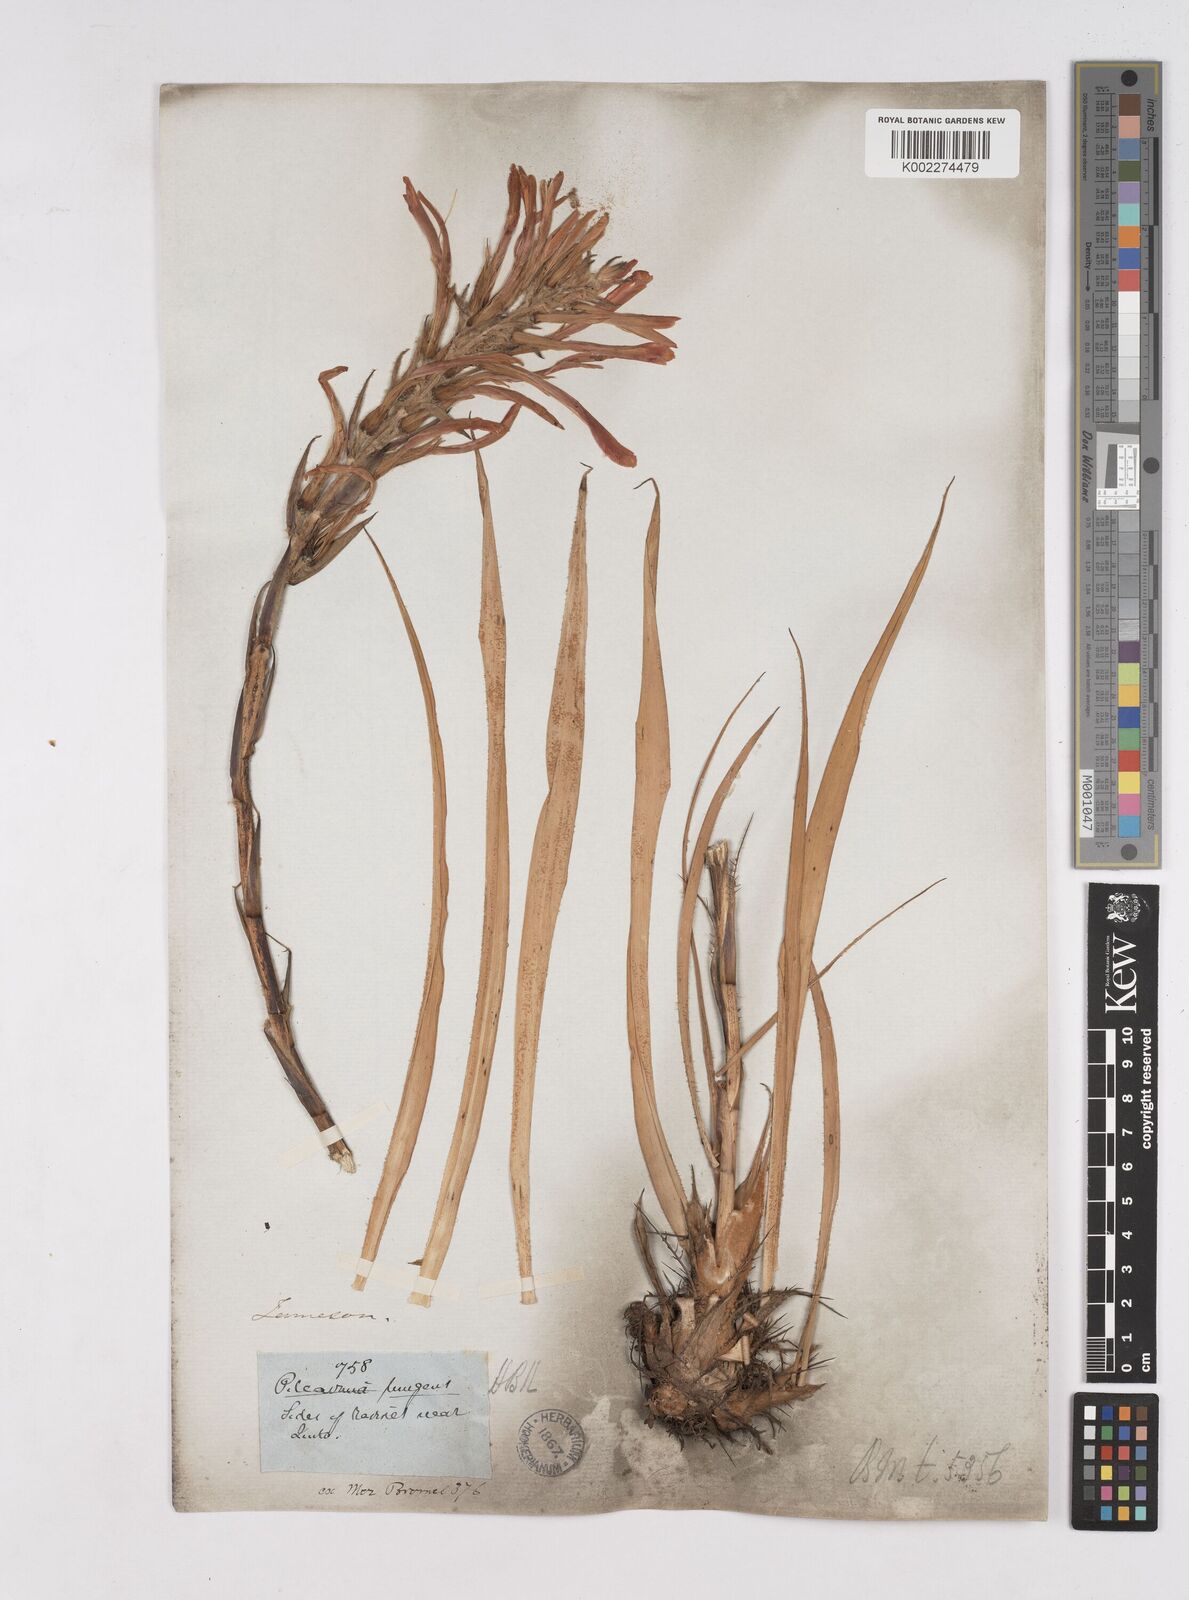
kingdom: Plantae
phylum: Tracheophyta
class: Liliopsida
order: Poales
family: Bromeliaceae
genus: Pitcairnia
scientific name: Pitcairnia pungens
